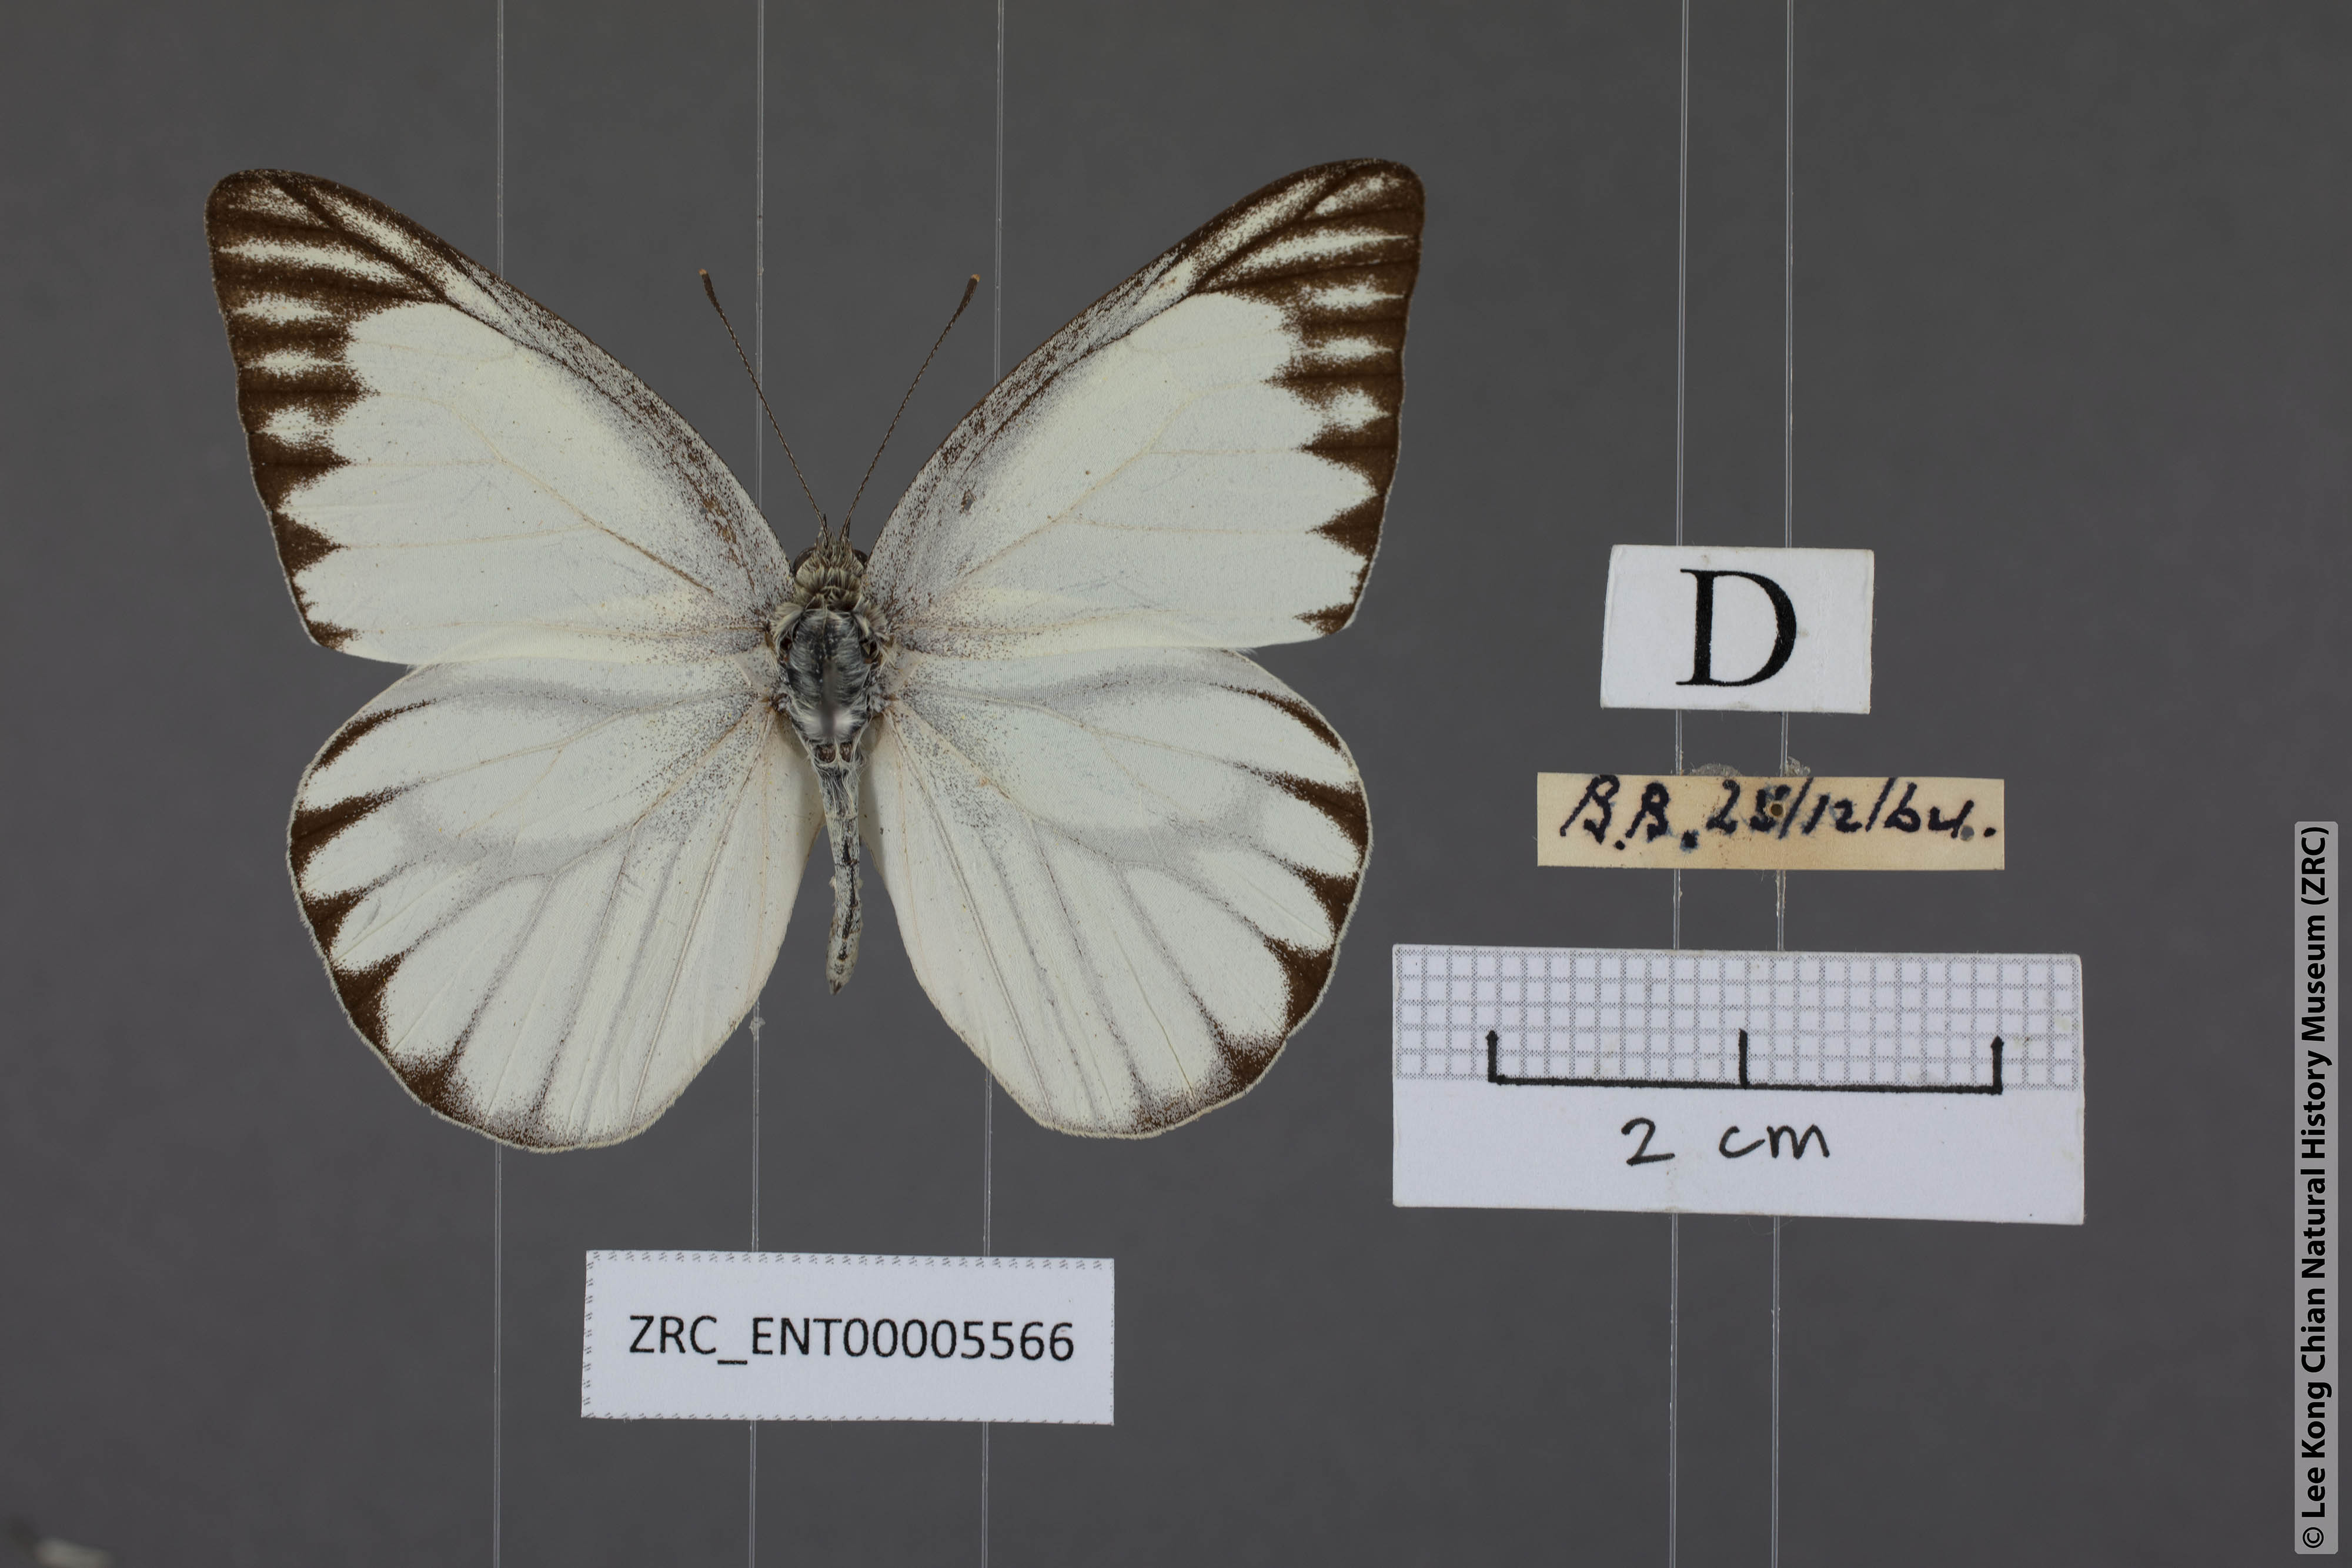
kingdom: Animalia
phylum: Arthropoda
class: Insecta
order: Lepidoptera
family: Pieridae
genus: Appias
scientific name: Appias libythea
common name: Striped albatross
